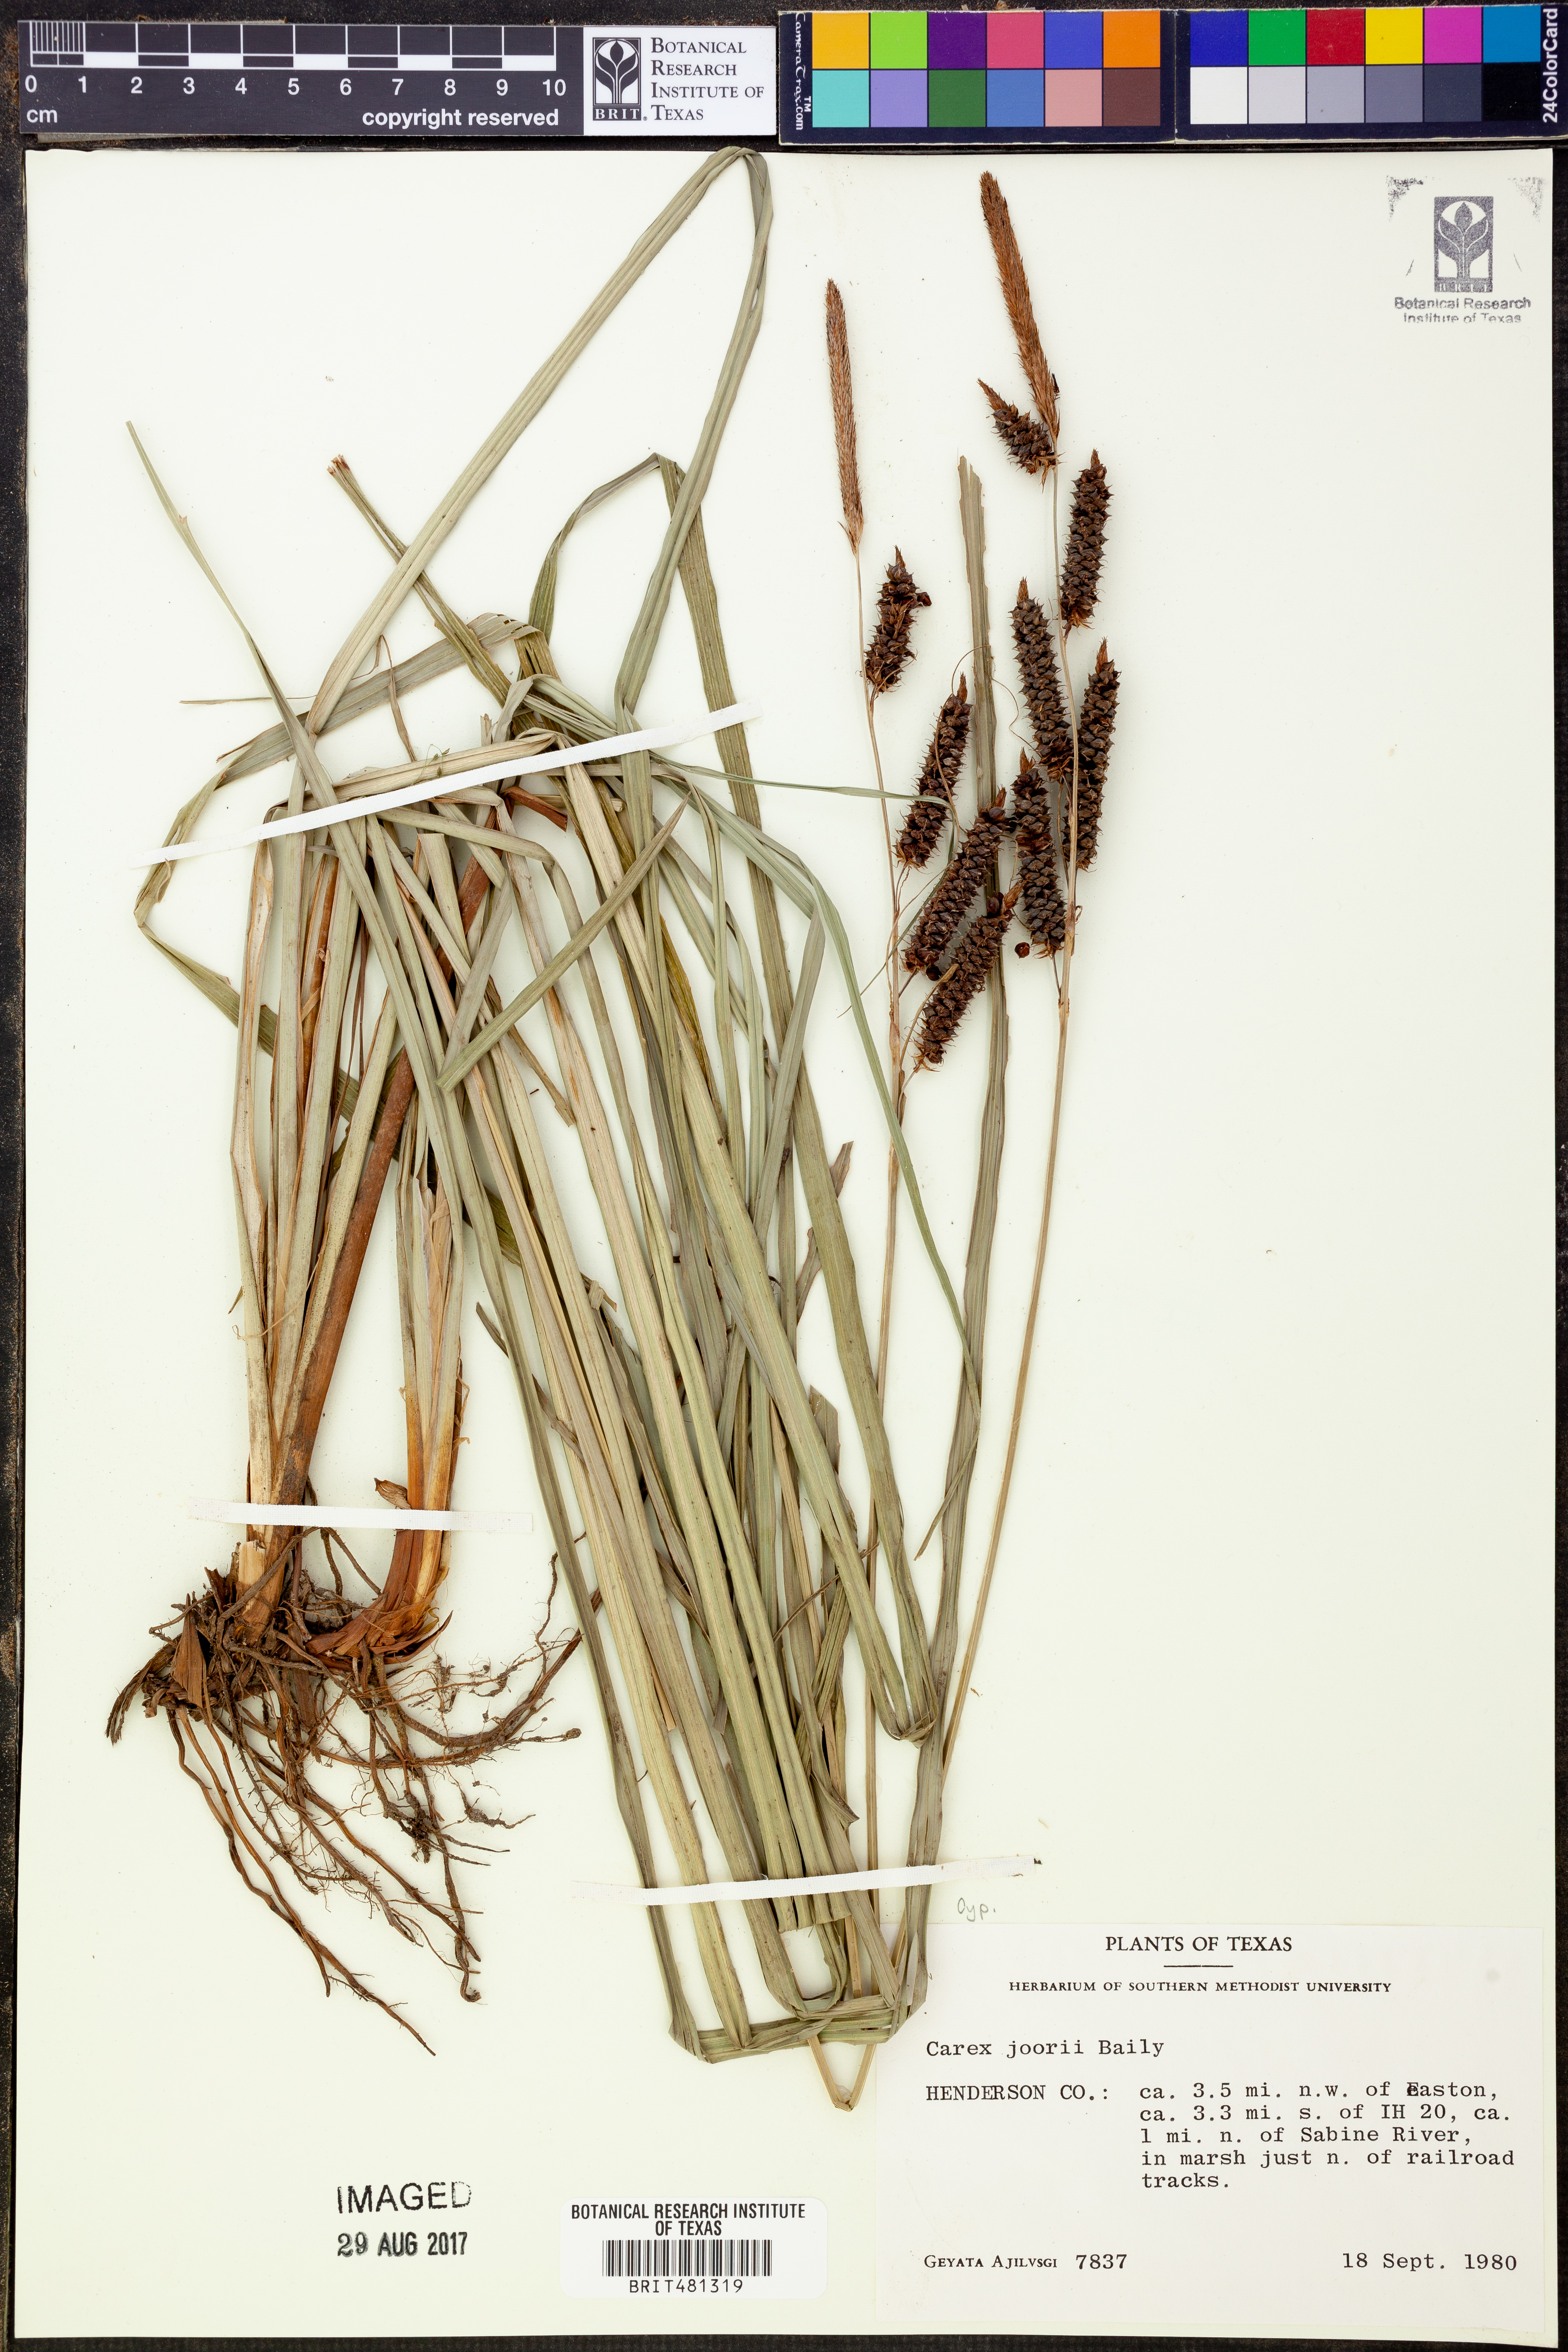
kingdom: Plantae
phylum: Tracheophyta
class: Liliopsida
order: Poales
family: Cyperaceae
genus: Carex
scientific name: Carex joorii
